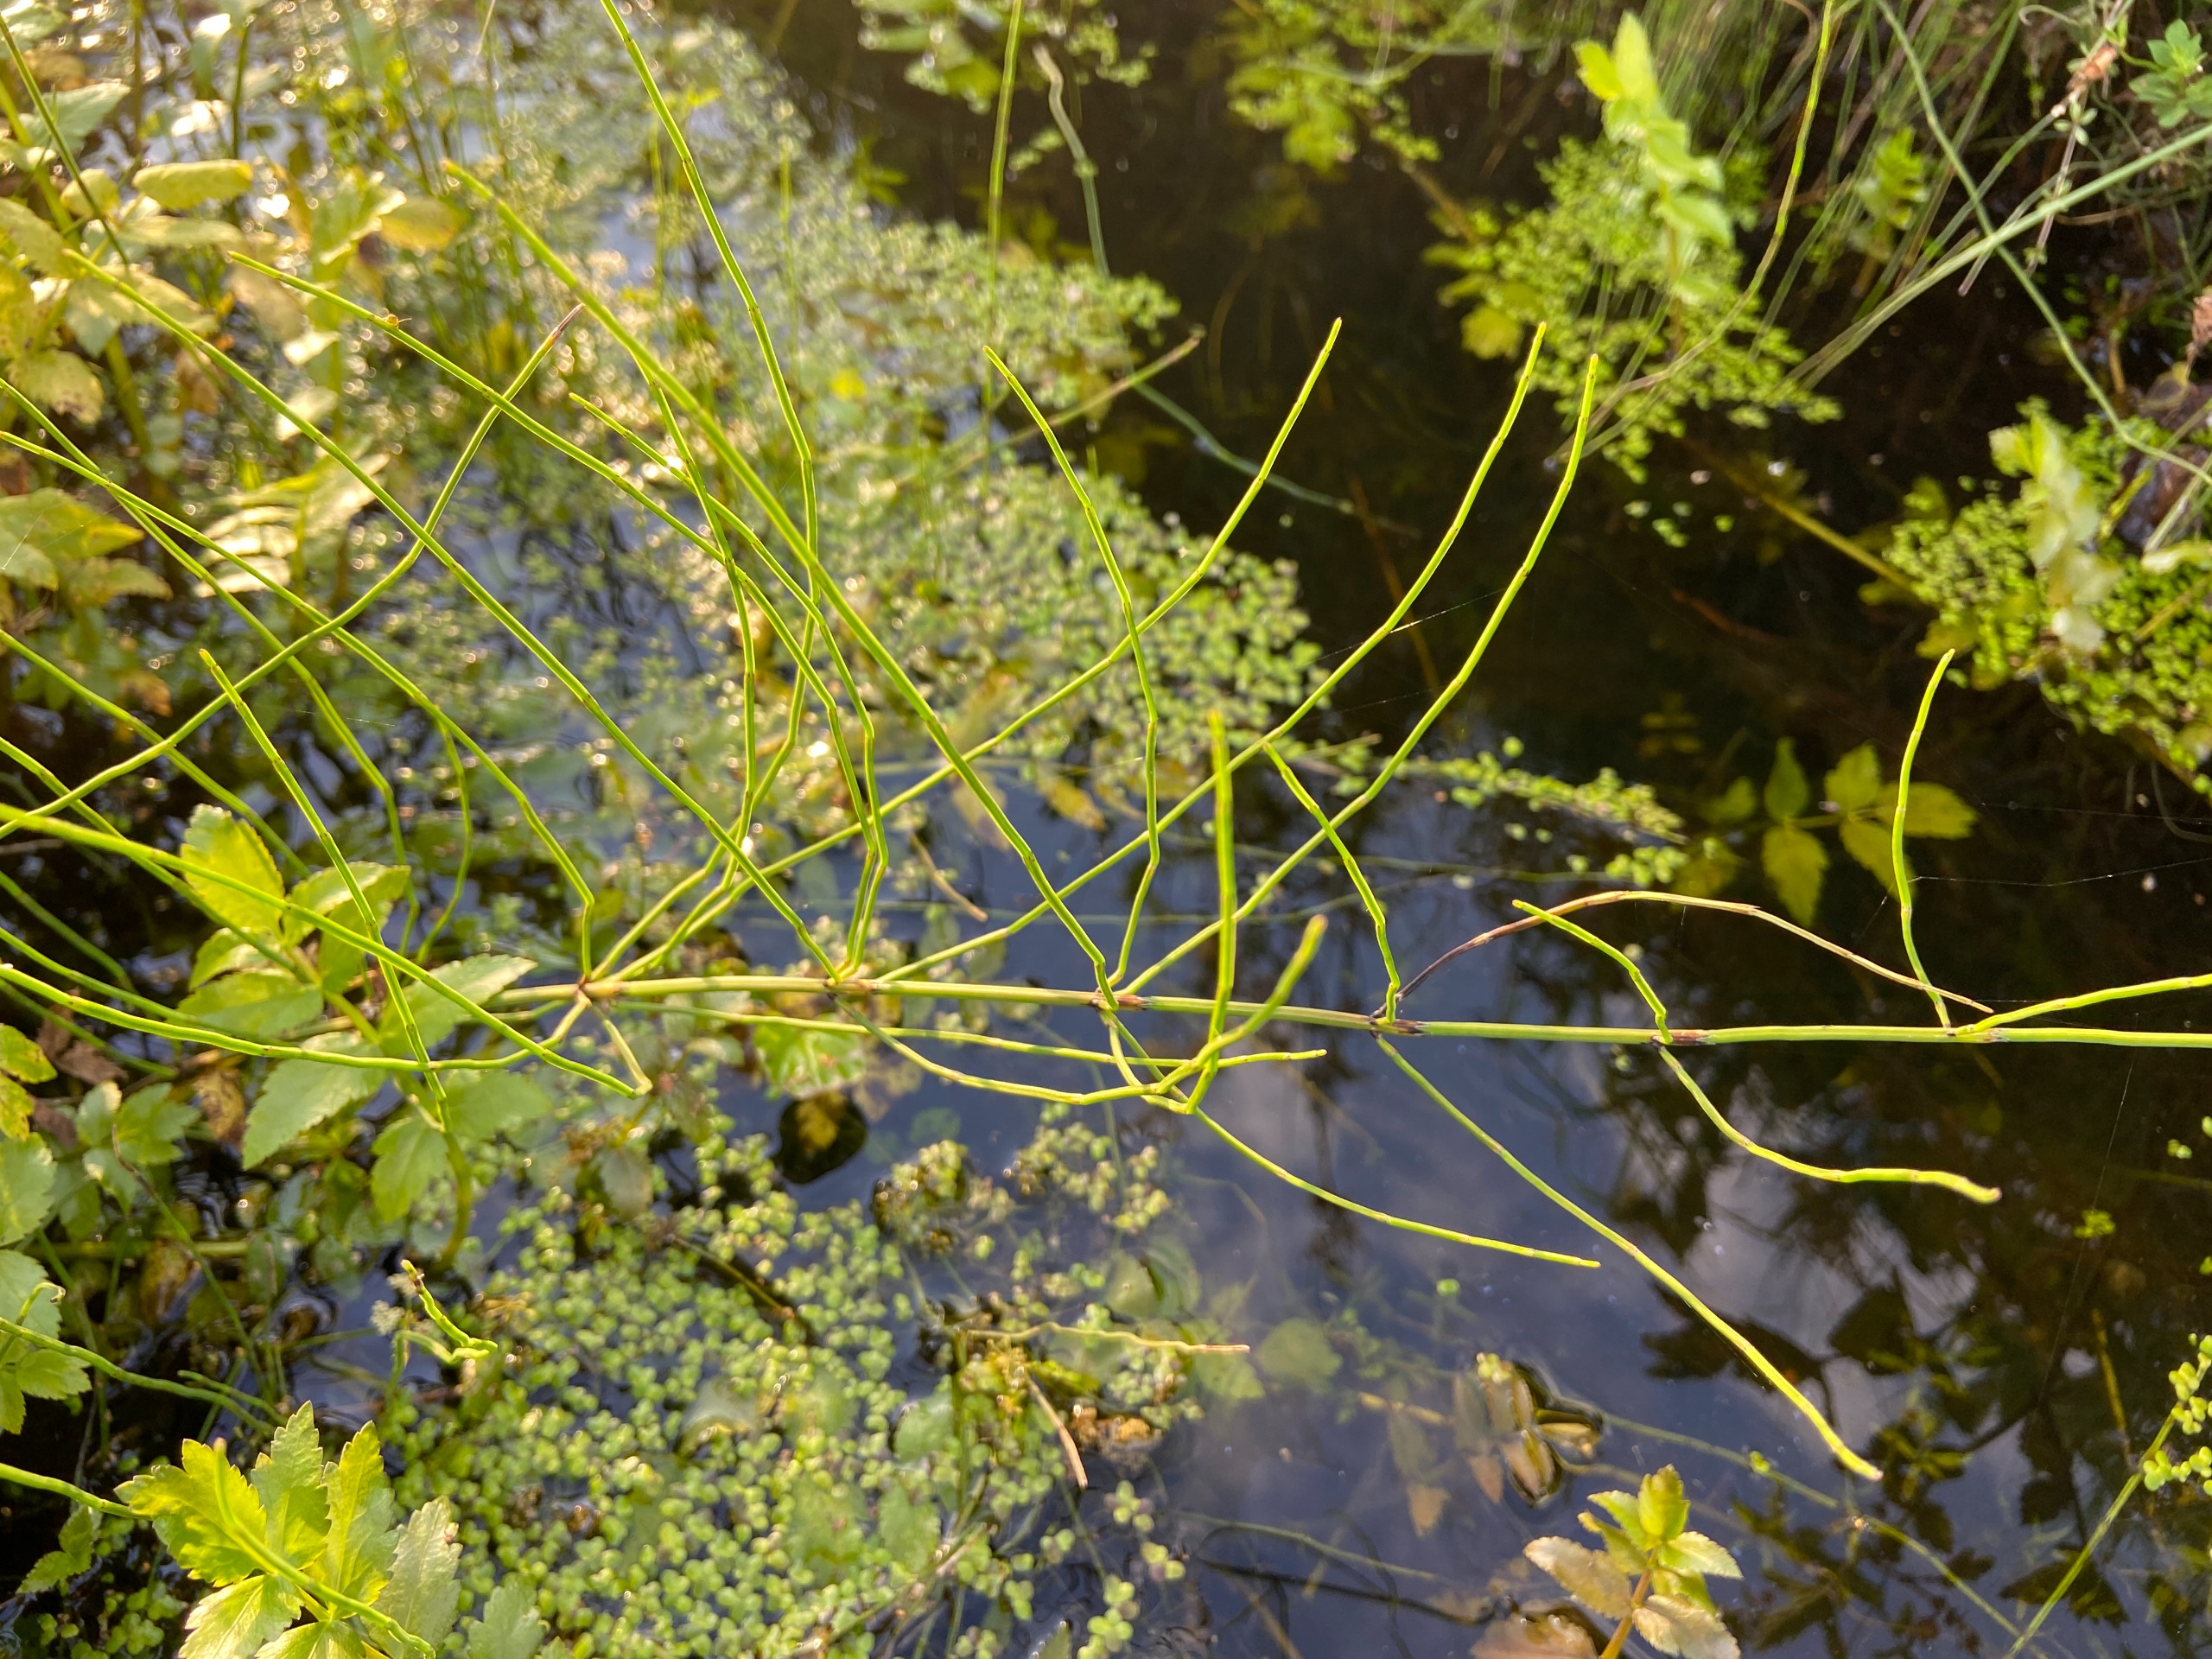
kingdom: Plantae
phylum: Tracheophyta
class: Polypodiopsida
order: Equisetales
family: Equisetaceae
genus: Equisetum
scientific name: Equisetum palustre
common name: Kær-padderok
